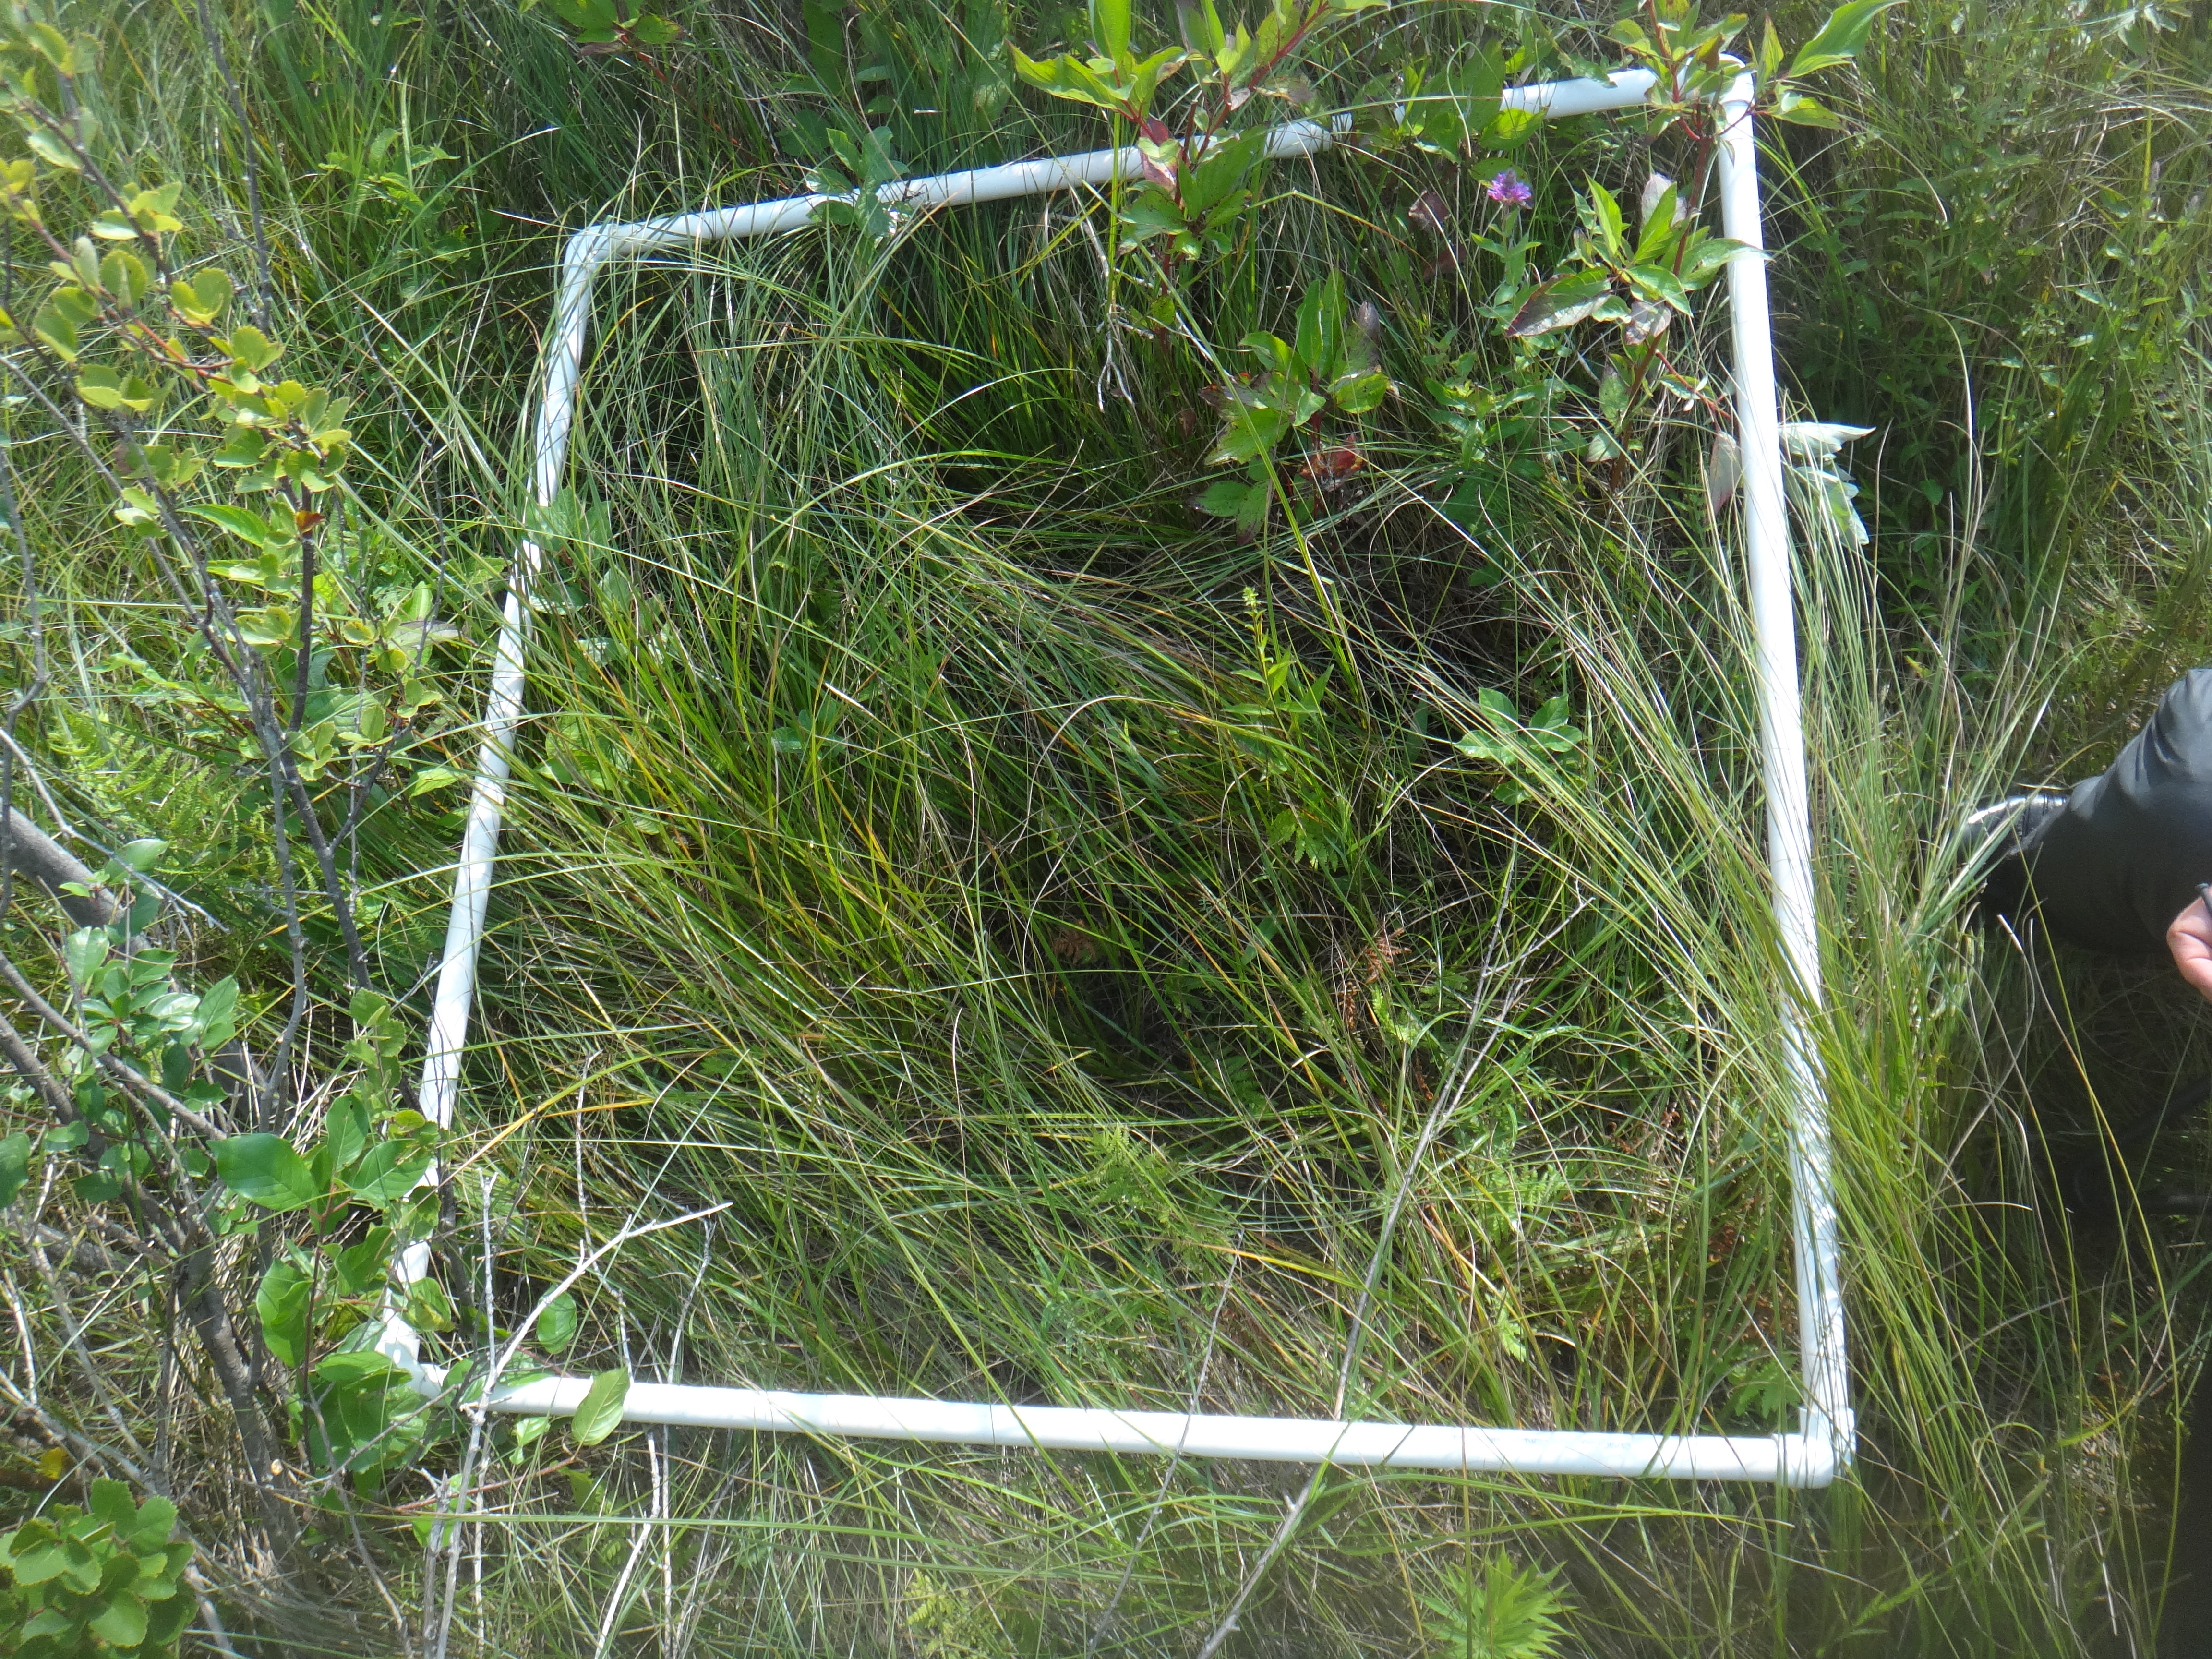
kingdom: Plantae
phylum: Tracheophyta
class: Magnoliopsida
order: Lamiales
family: Lamiaceae
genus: Pycnanthemum
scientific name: Pycnanthemum virginianum
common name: Virginia mountain-mint
